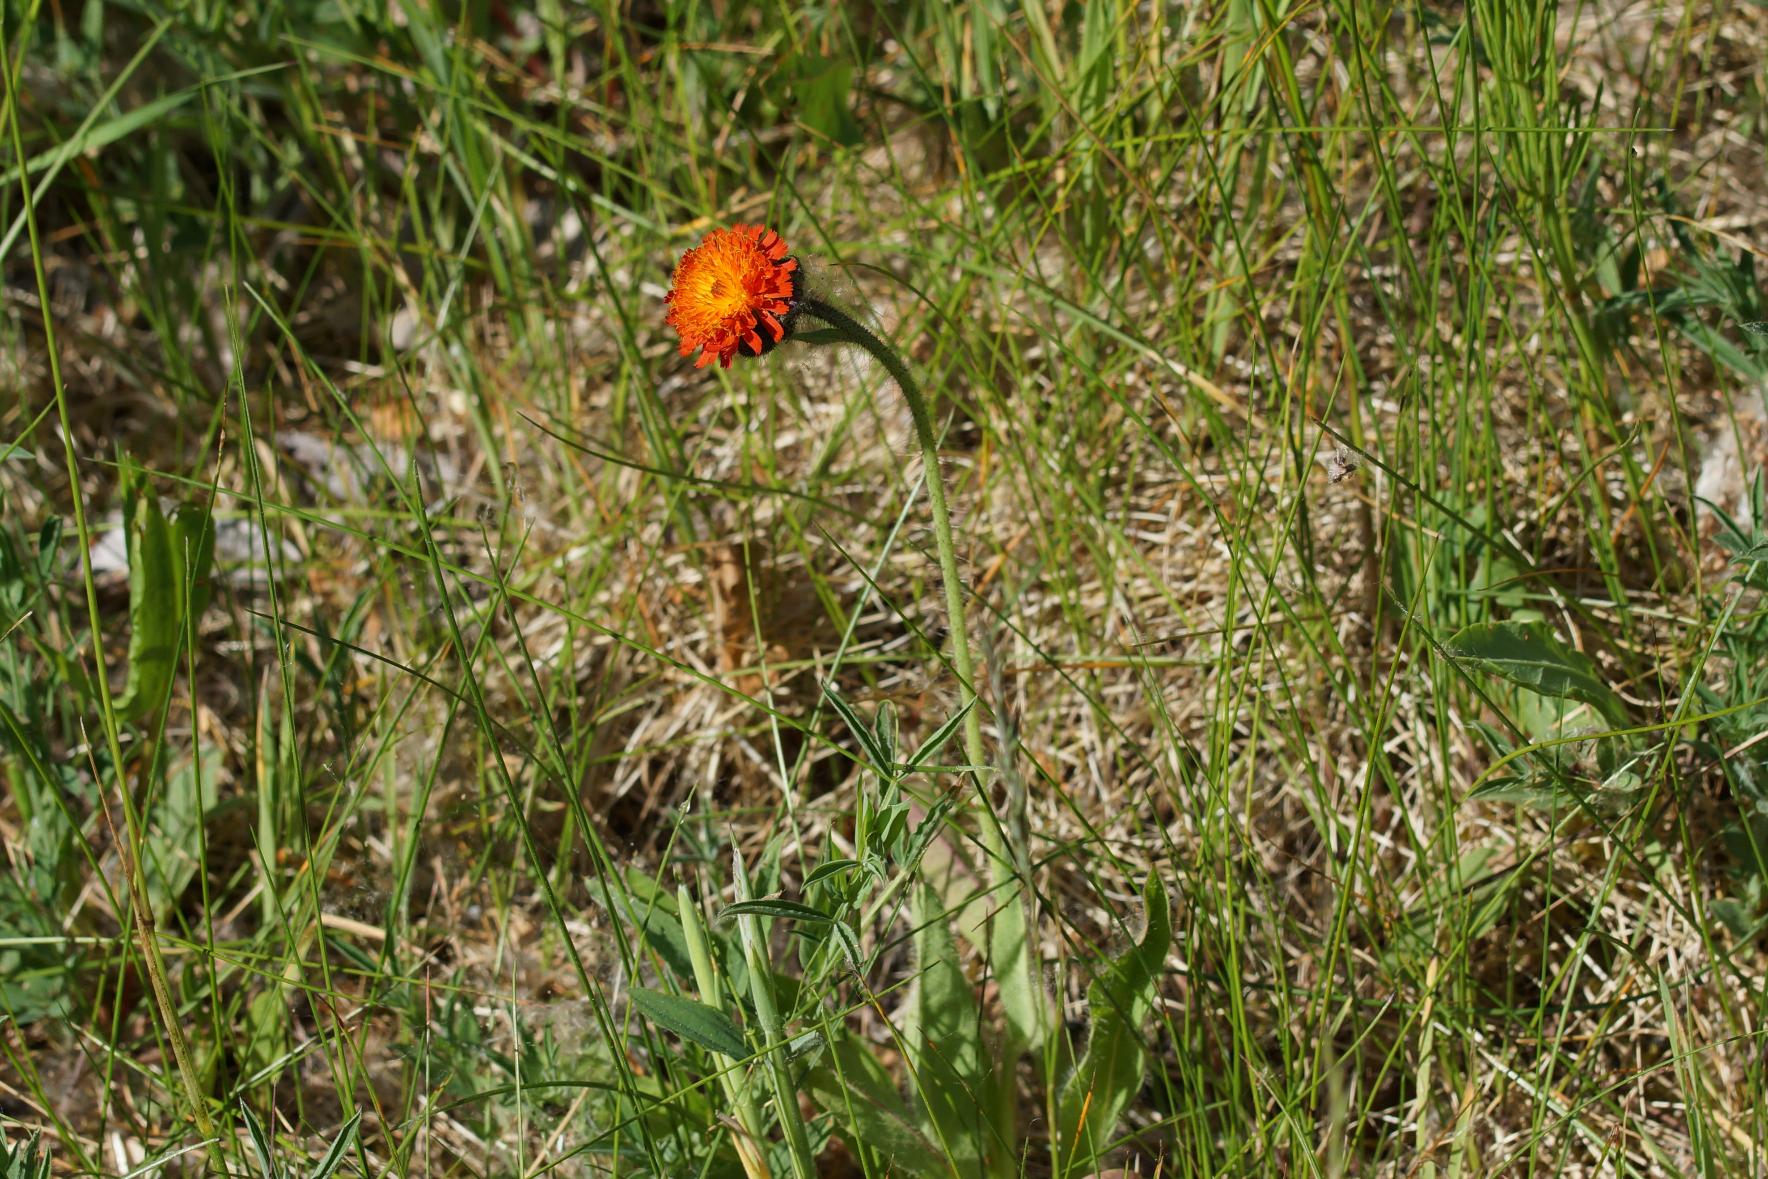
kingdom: Plantae
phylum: Tracheophyta
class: Magnoliopsida
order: Asterales
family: Asteraceae
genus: Pilosella
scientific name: Pilosella aurantiaca
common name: Pomerans-høgeurt
